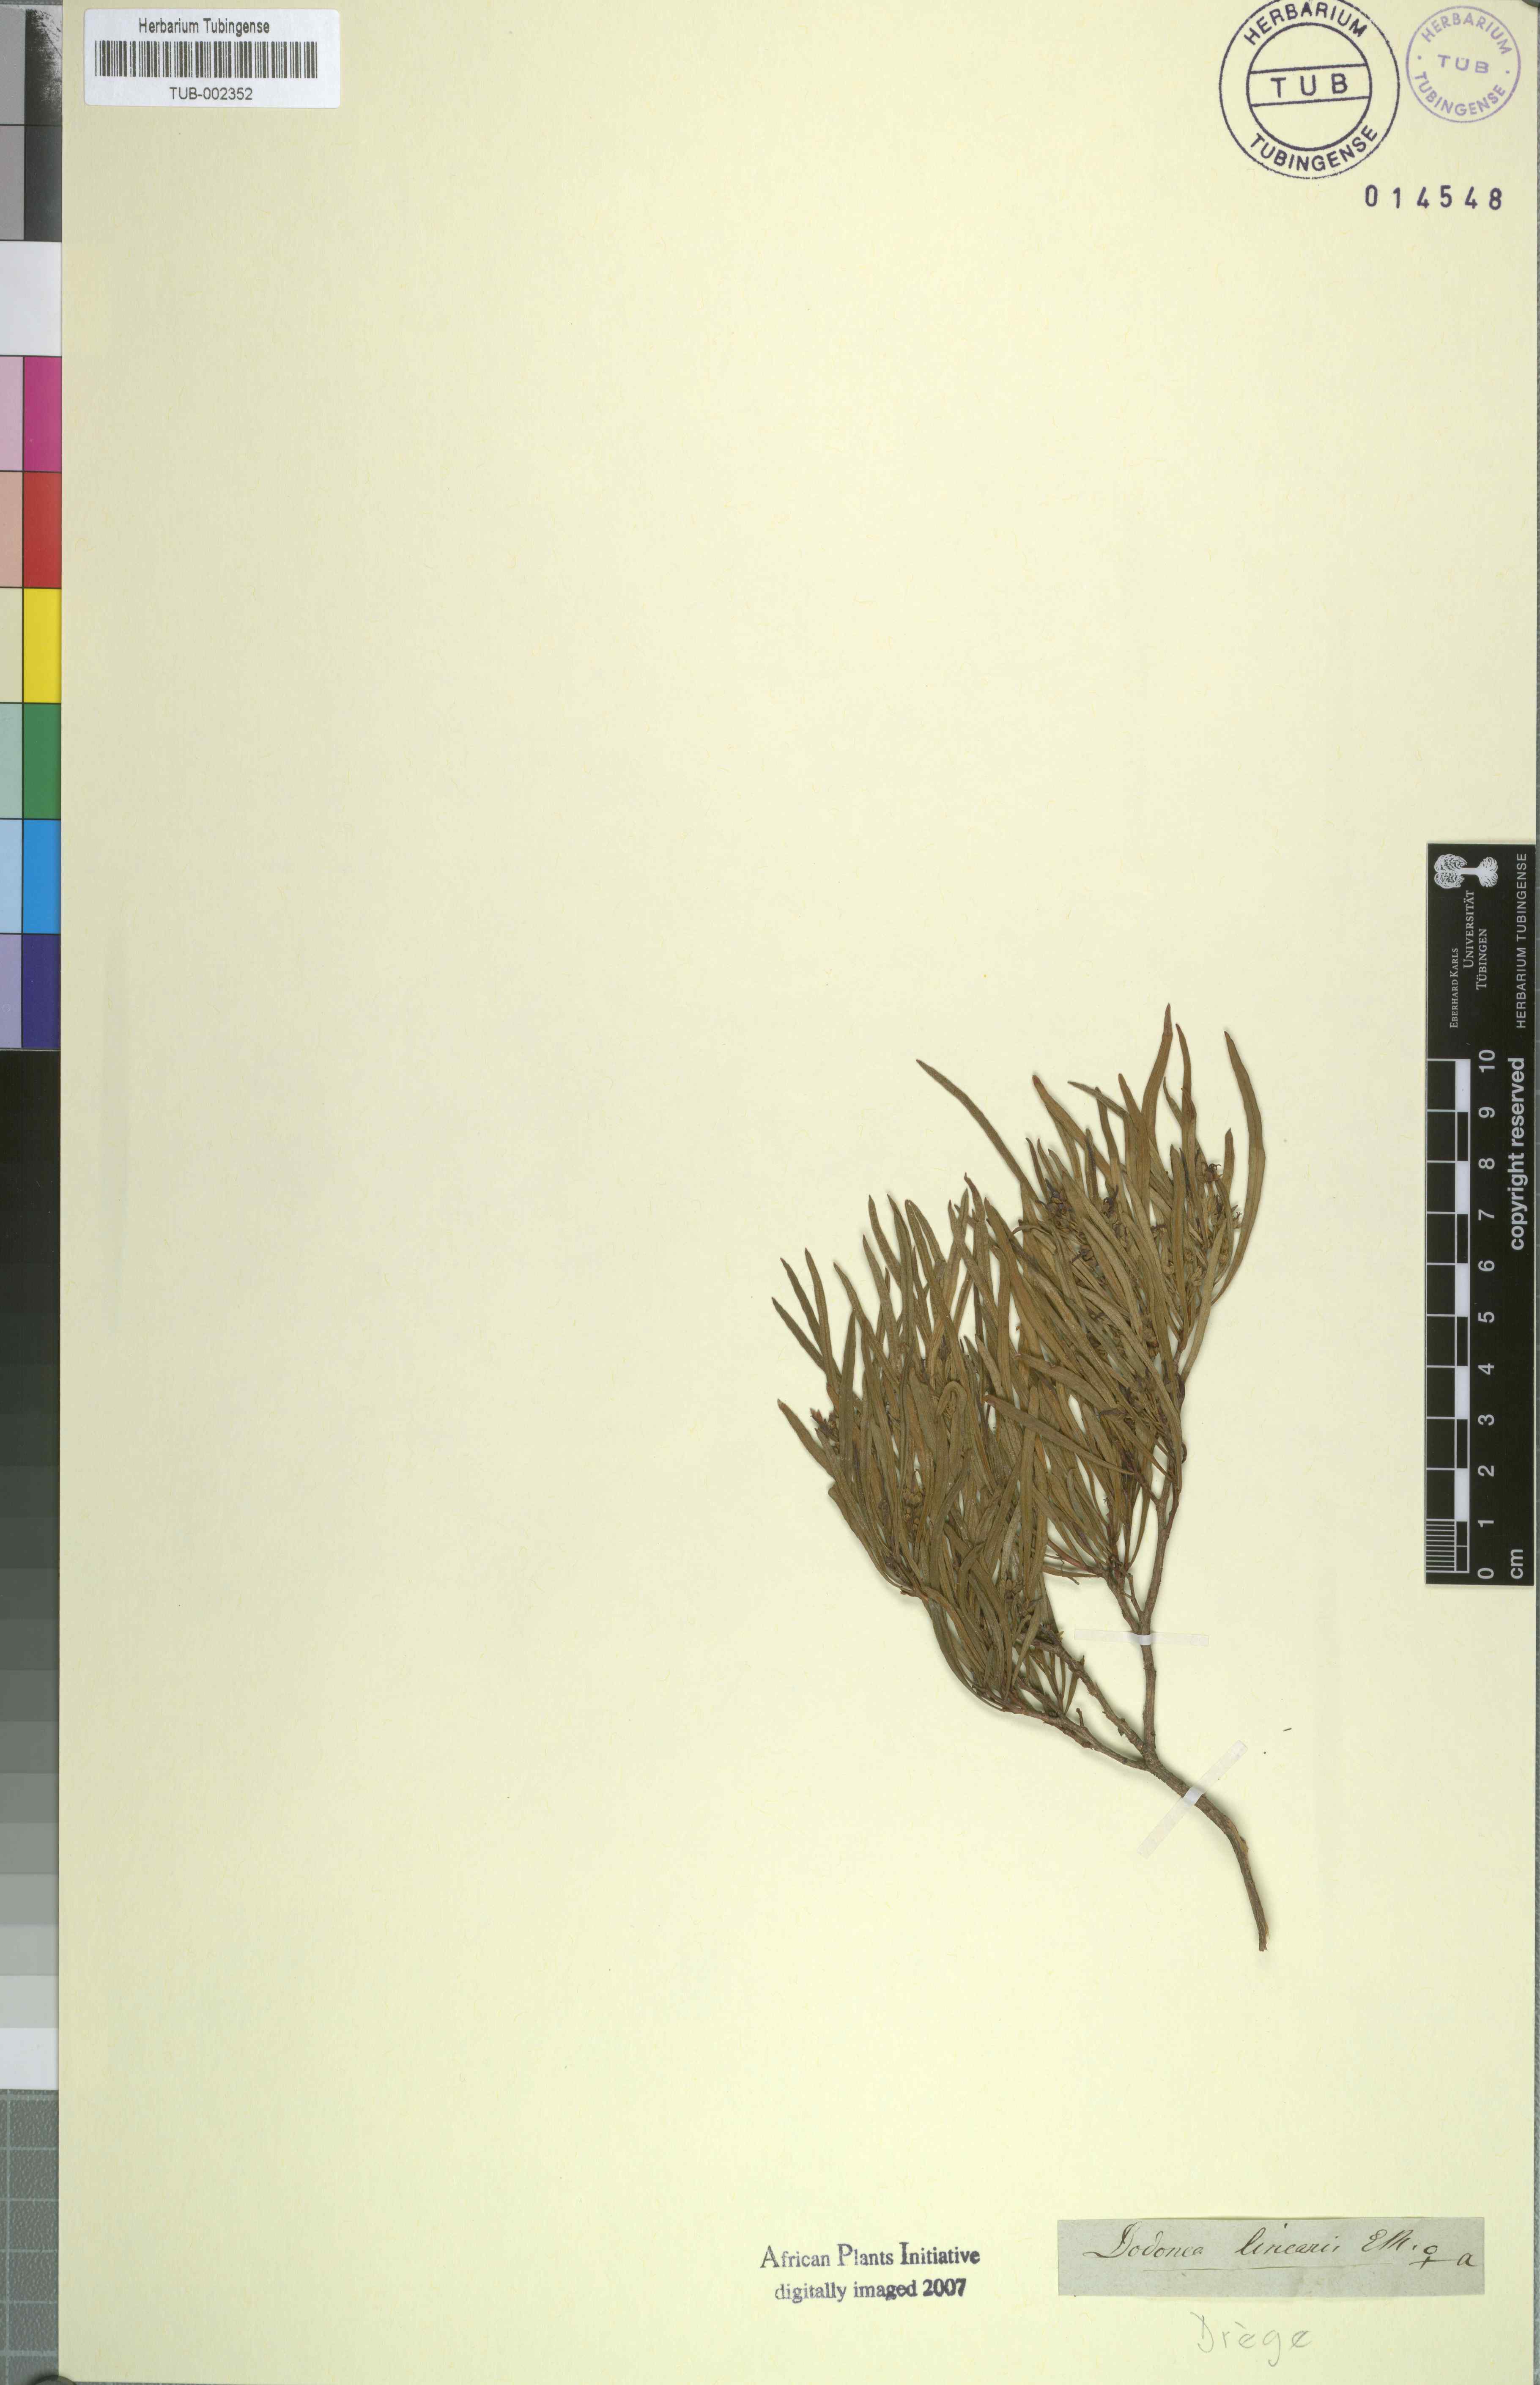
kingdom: Plantae
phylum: Tracheophyta
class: Magnoliopsida
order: Sapindales
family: Sapindaceae
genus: Dodonaea
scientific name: Dodonaea viscosa
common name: Hopbush
